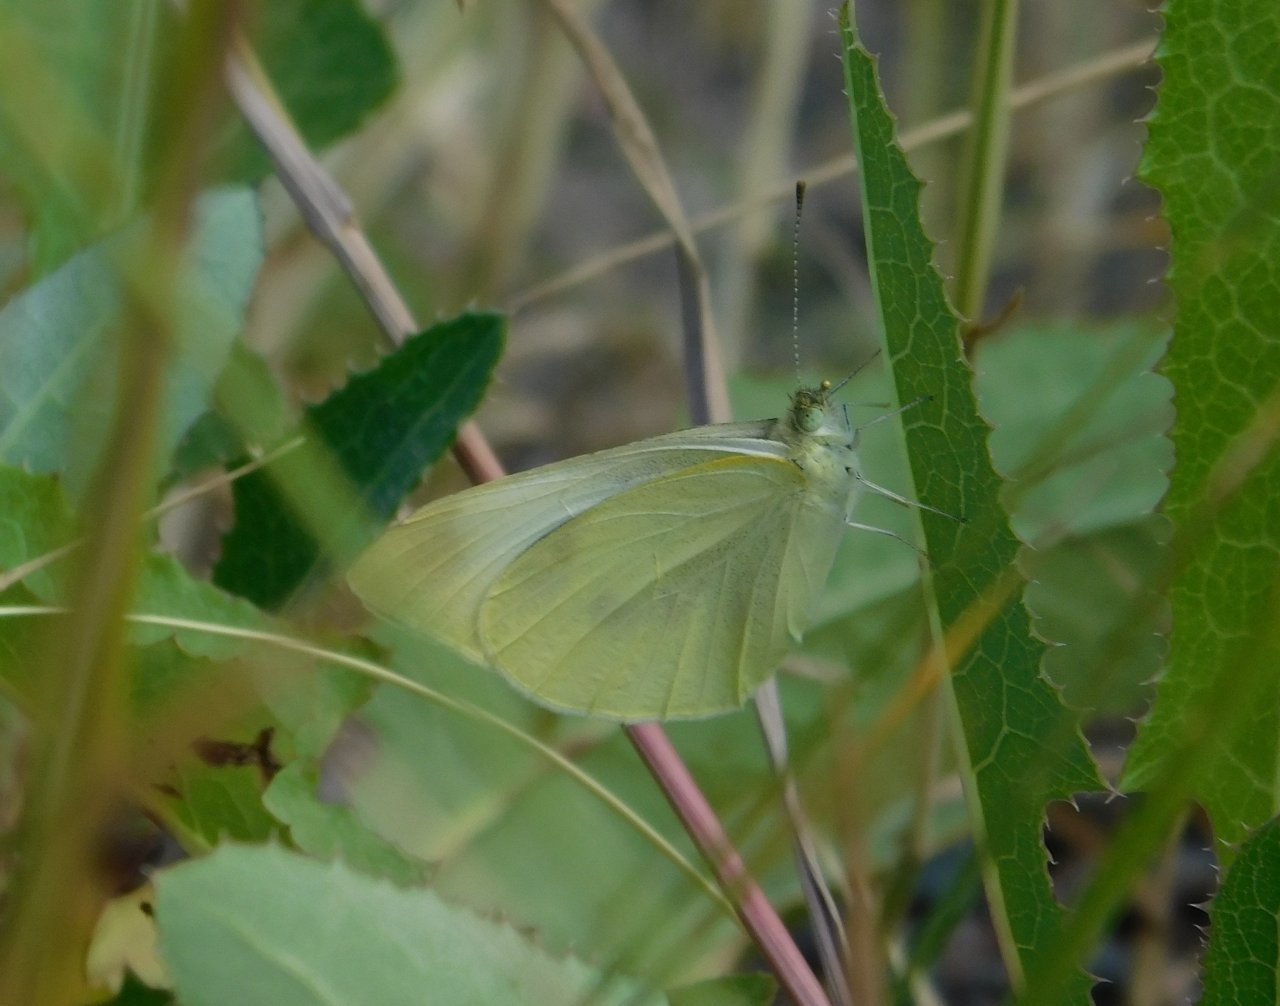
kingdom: Animalia
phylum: Arthropoda
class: Insecta
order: Lepidoptera
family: Pieridae
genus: Pieris
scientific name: Pieris rapae
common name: Cabbage White
